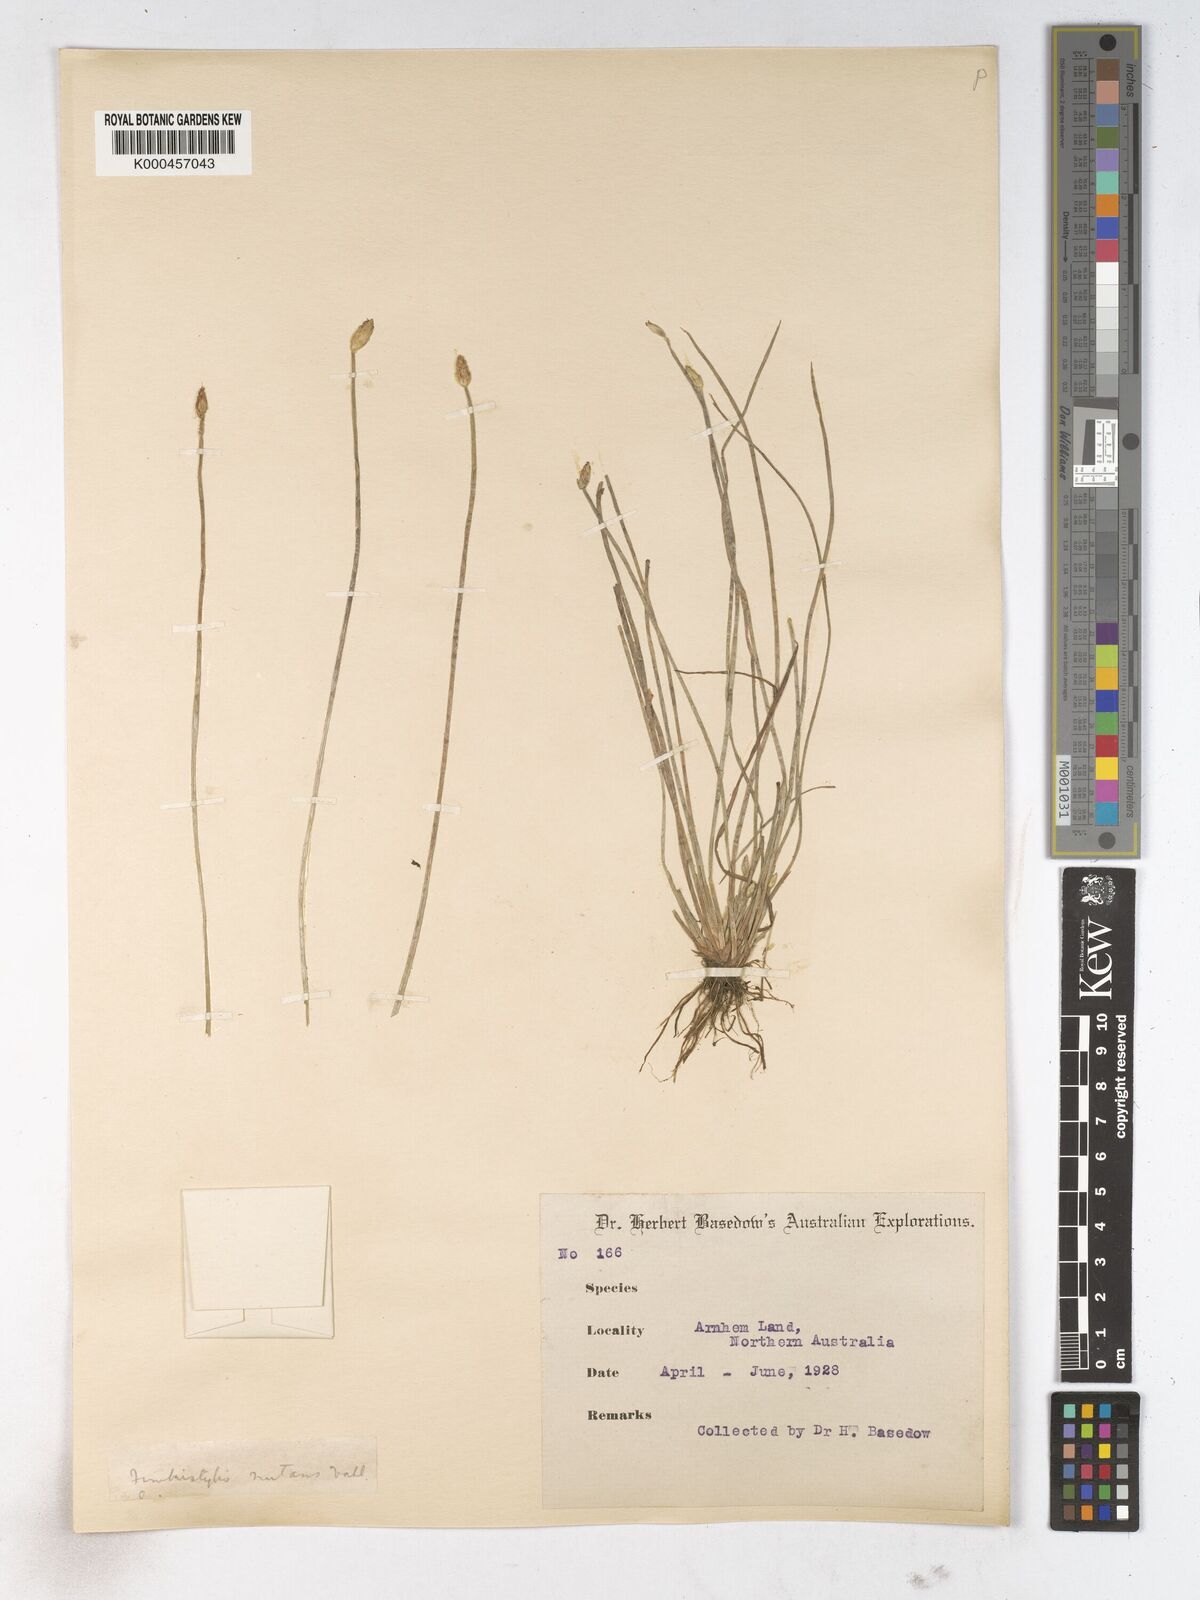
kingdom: Plantae
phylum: Tracheophyta
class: Liliopsida
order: Poales
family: Cyperaceae
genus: Fimbristylis
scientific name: Fimbristylis nutans
